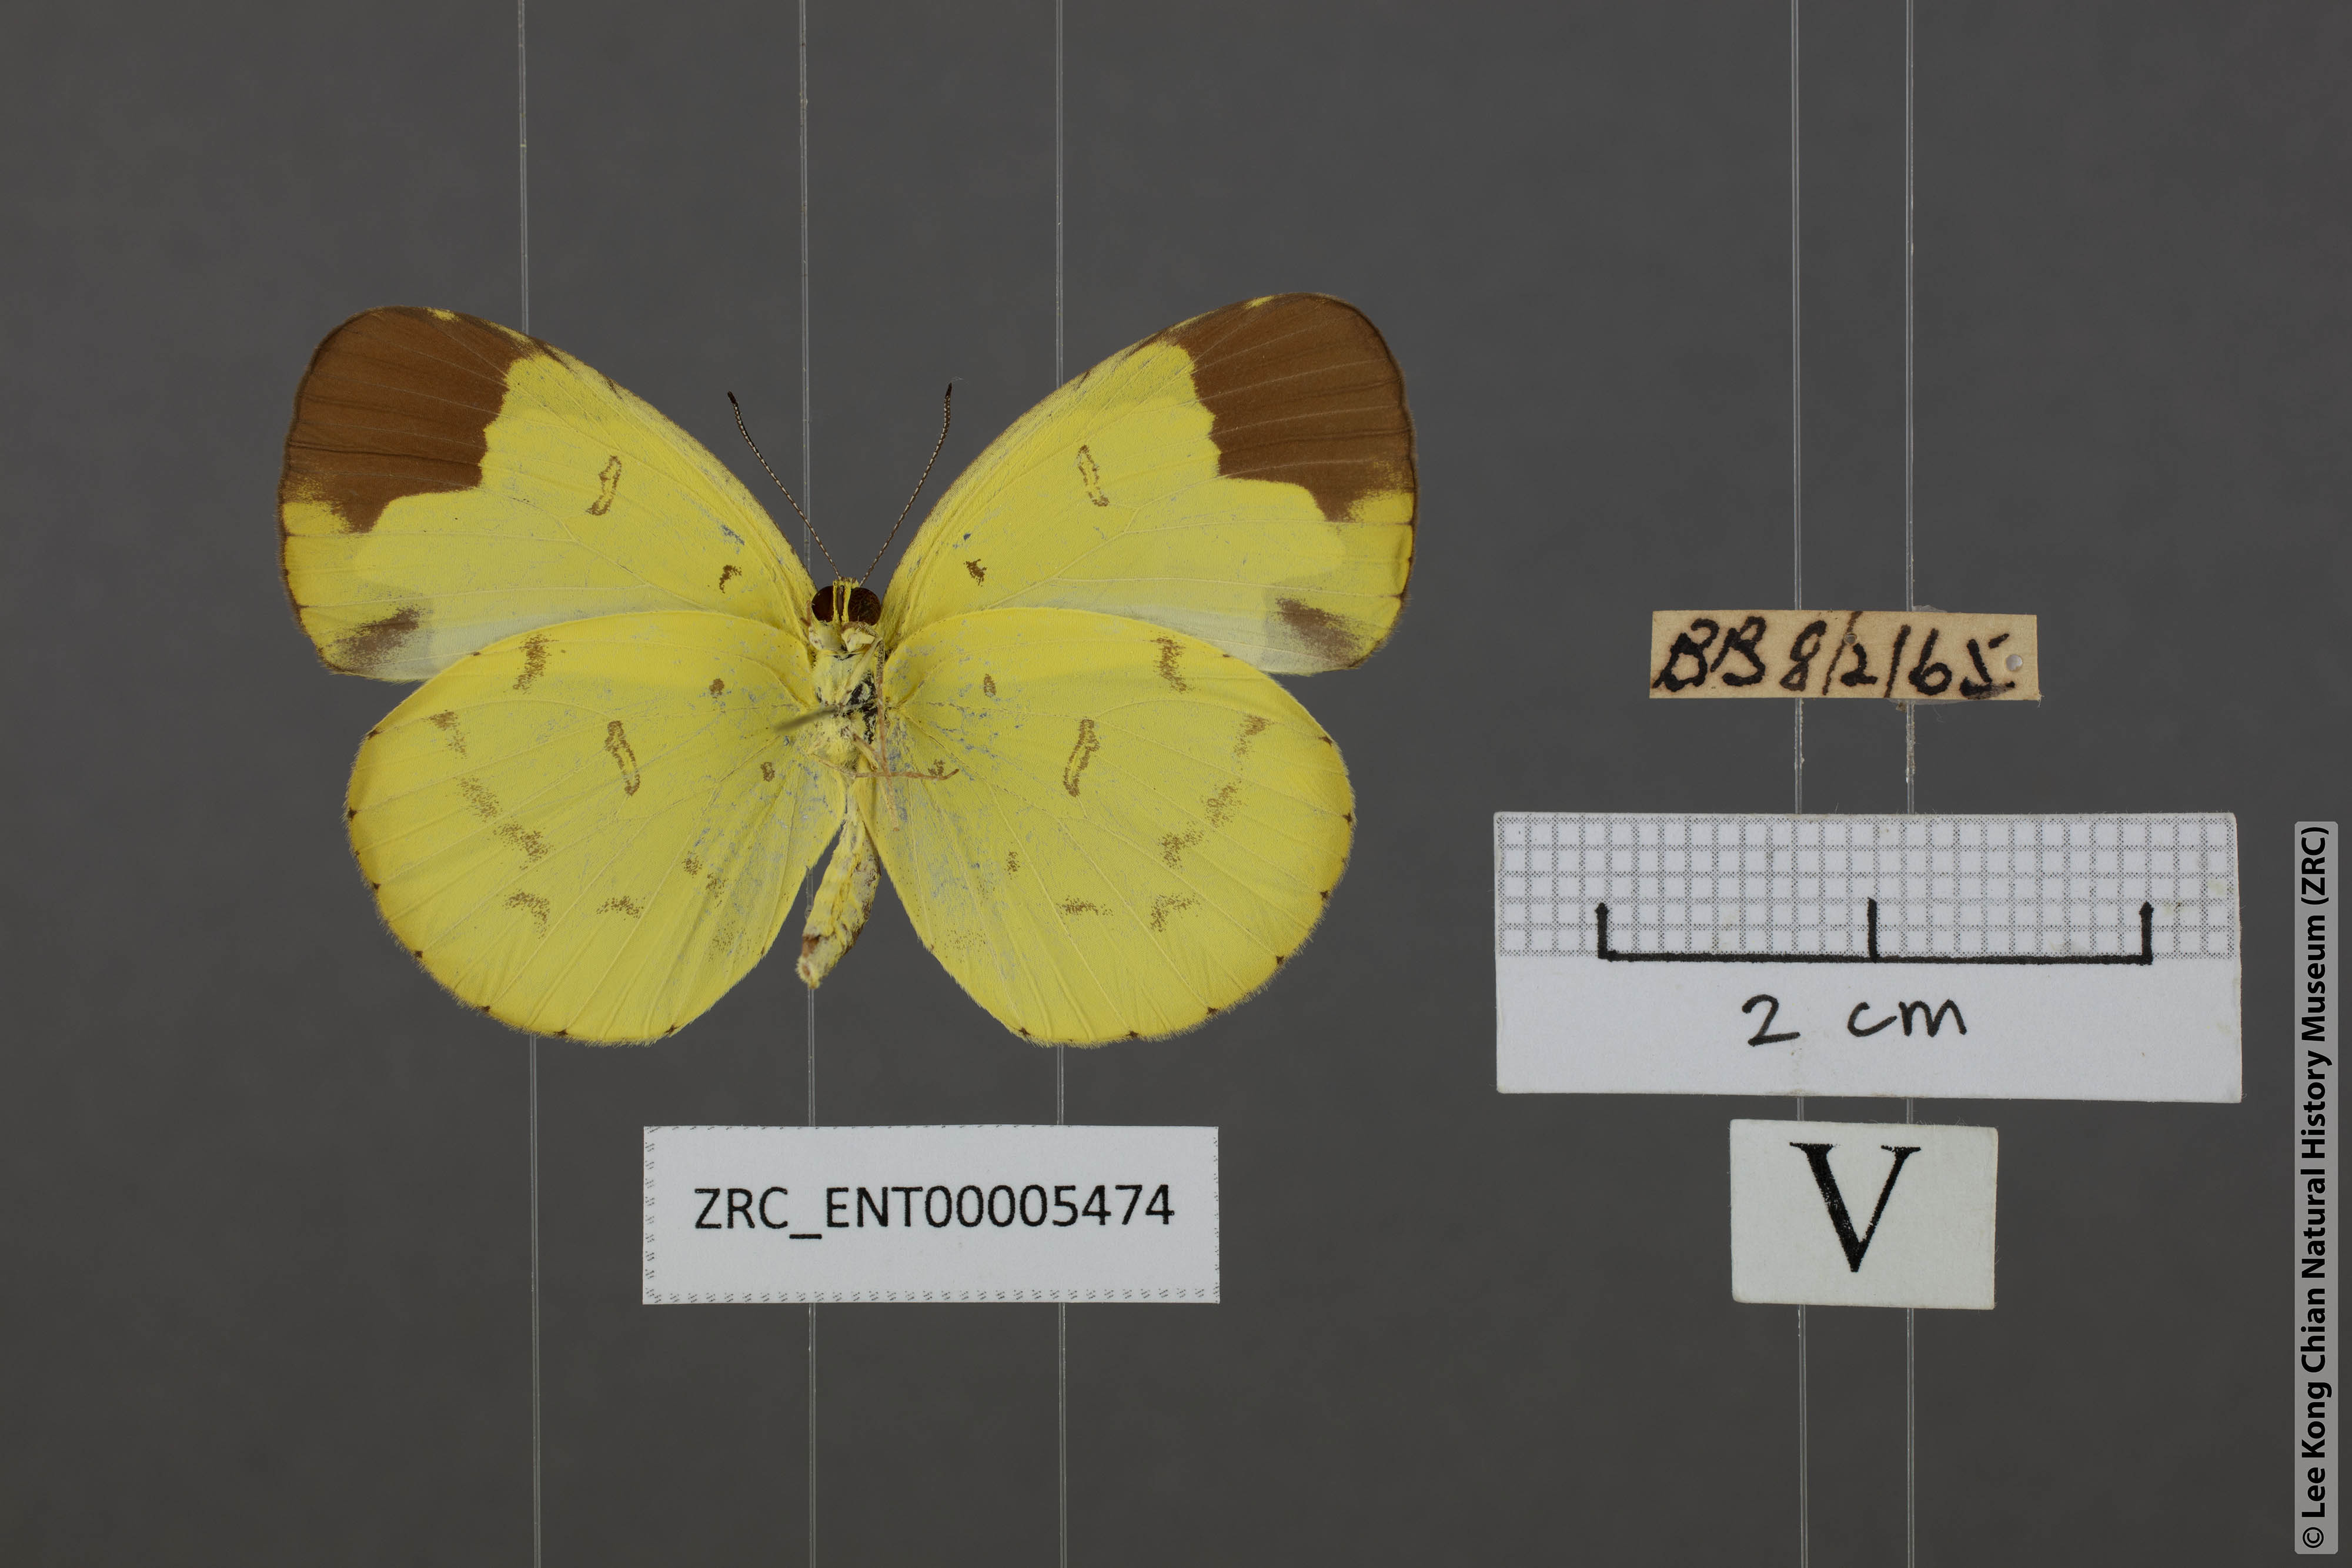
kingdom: Animalia
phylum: Arthropoda
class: Insecta
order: Lepidoptera
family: Pieridae
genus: Eurema
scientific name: Eurema sari
